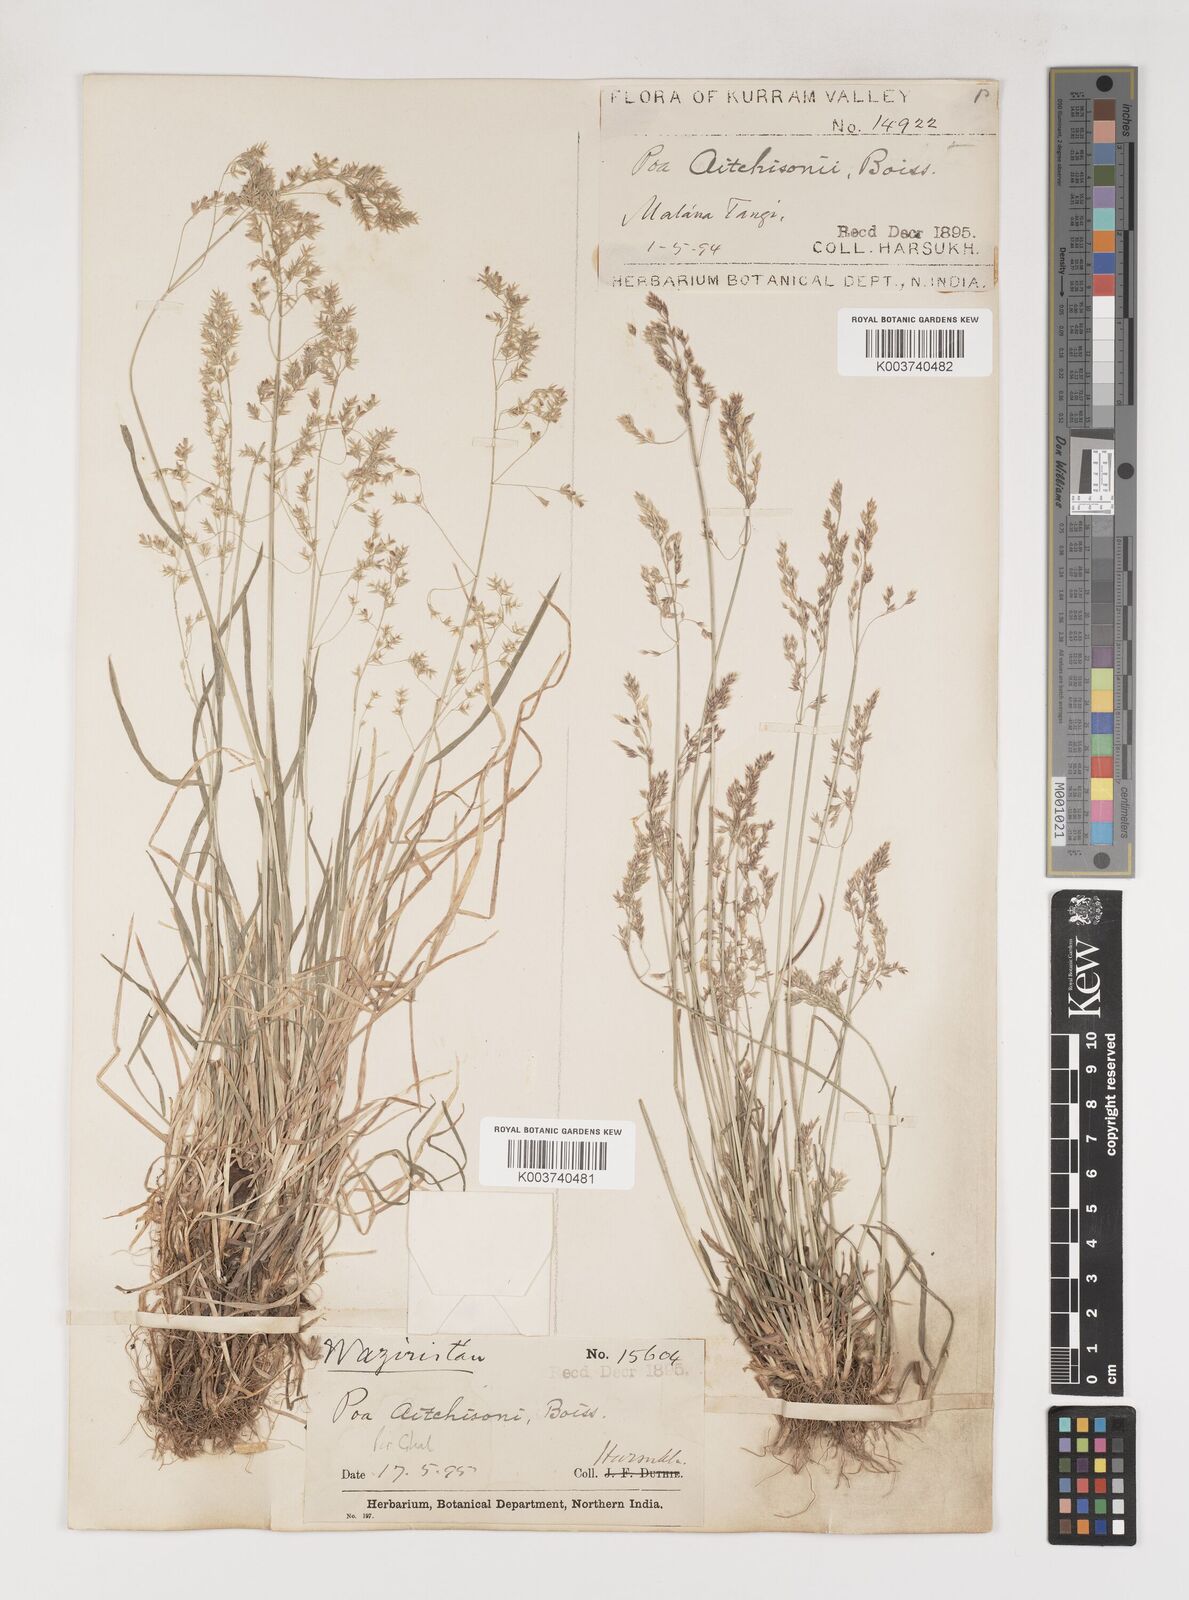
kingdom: Plantae
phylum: Tracheophyta
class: Liliopsida
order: Poales
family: Poaceae
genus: Poa
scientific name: Poa aitchisonii
